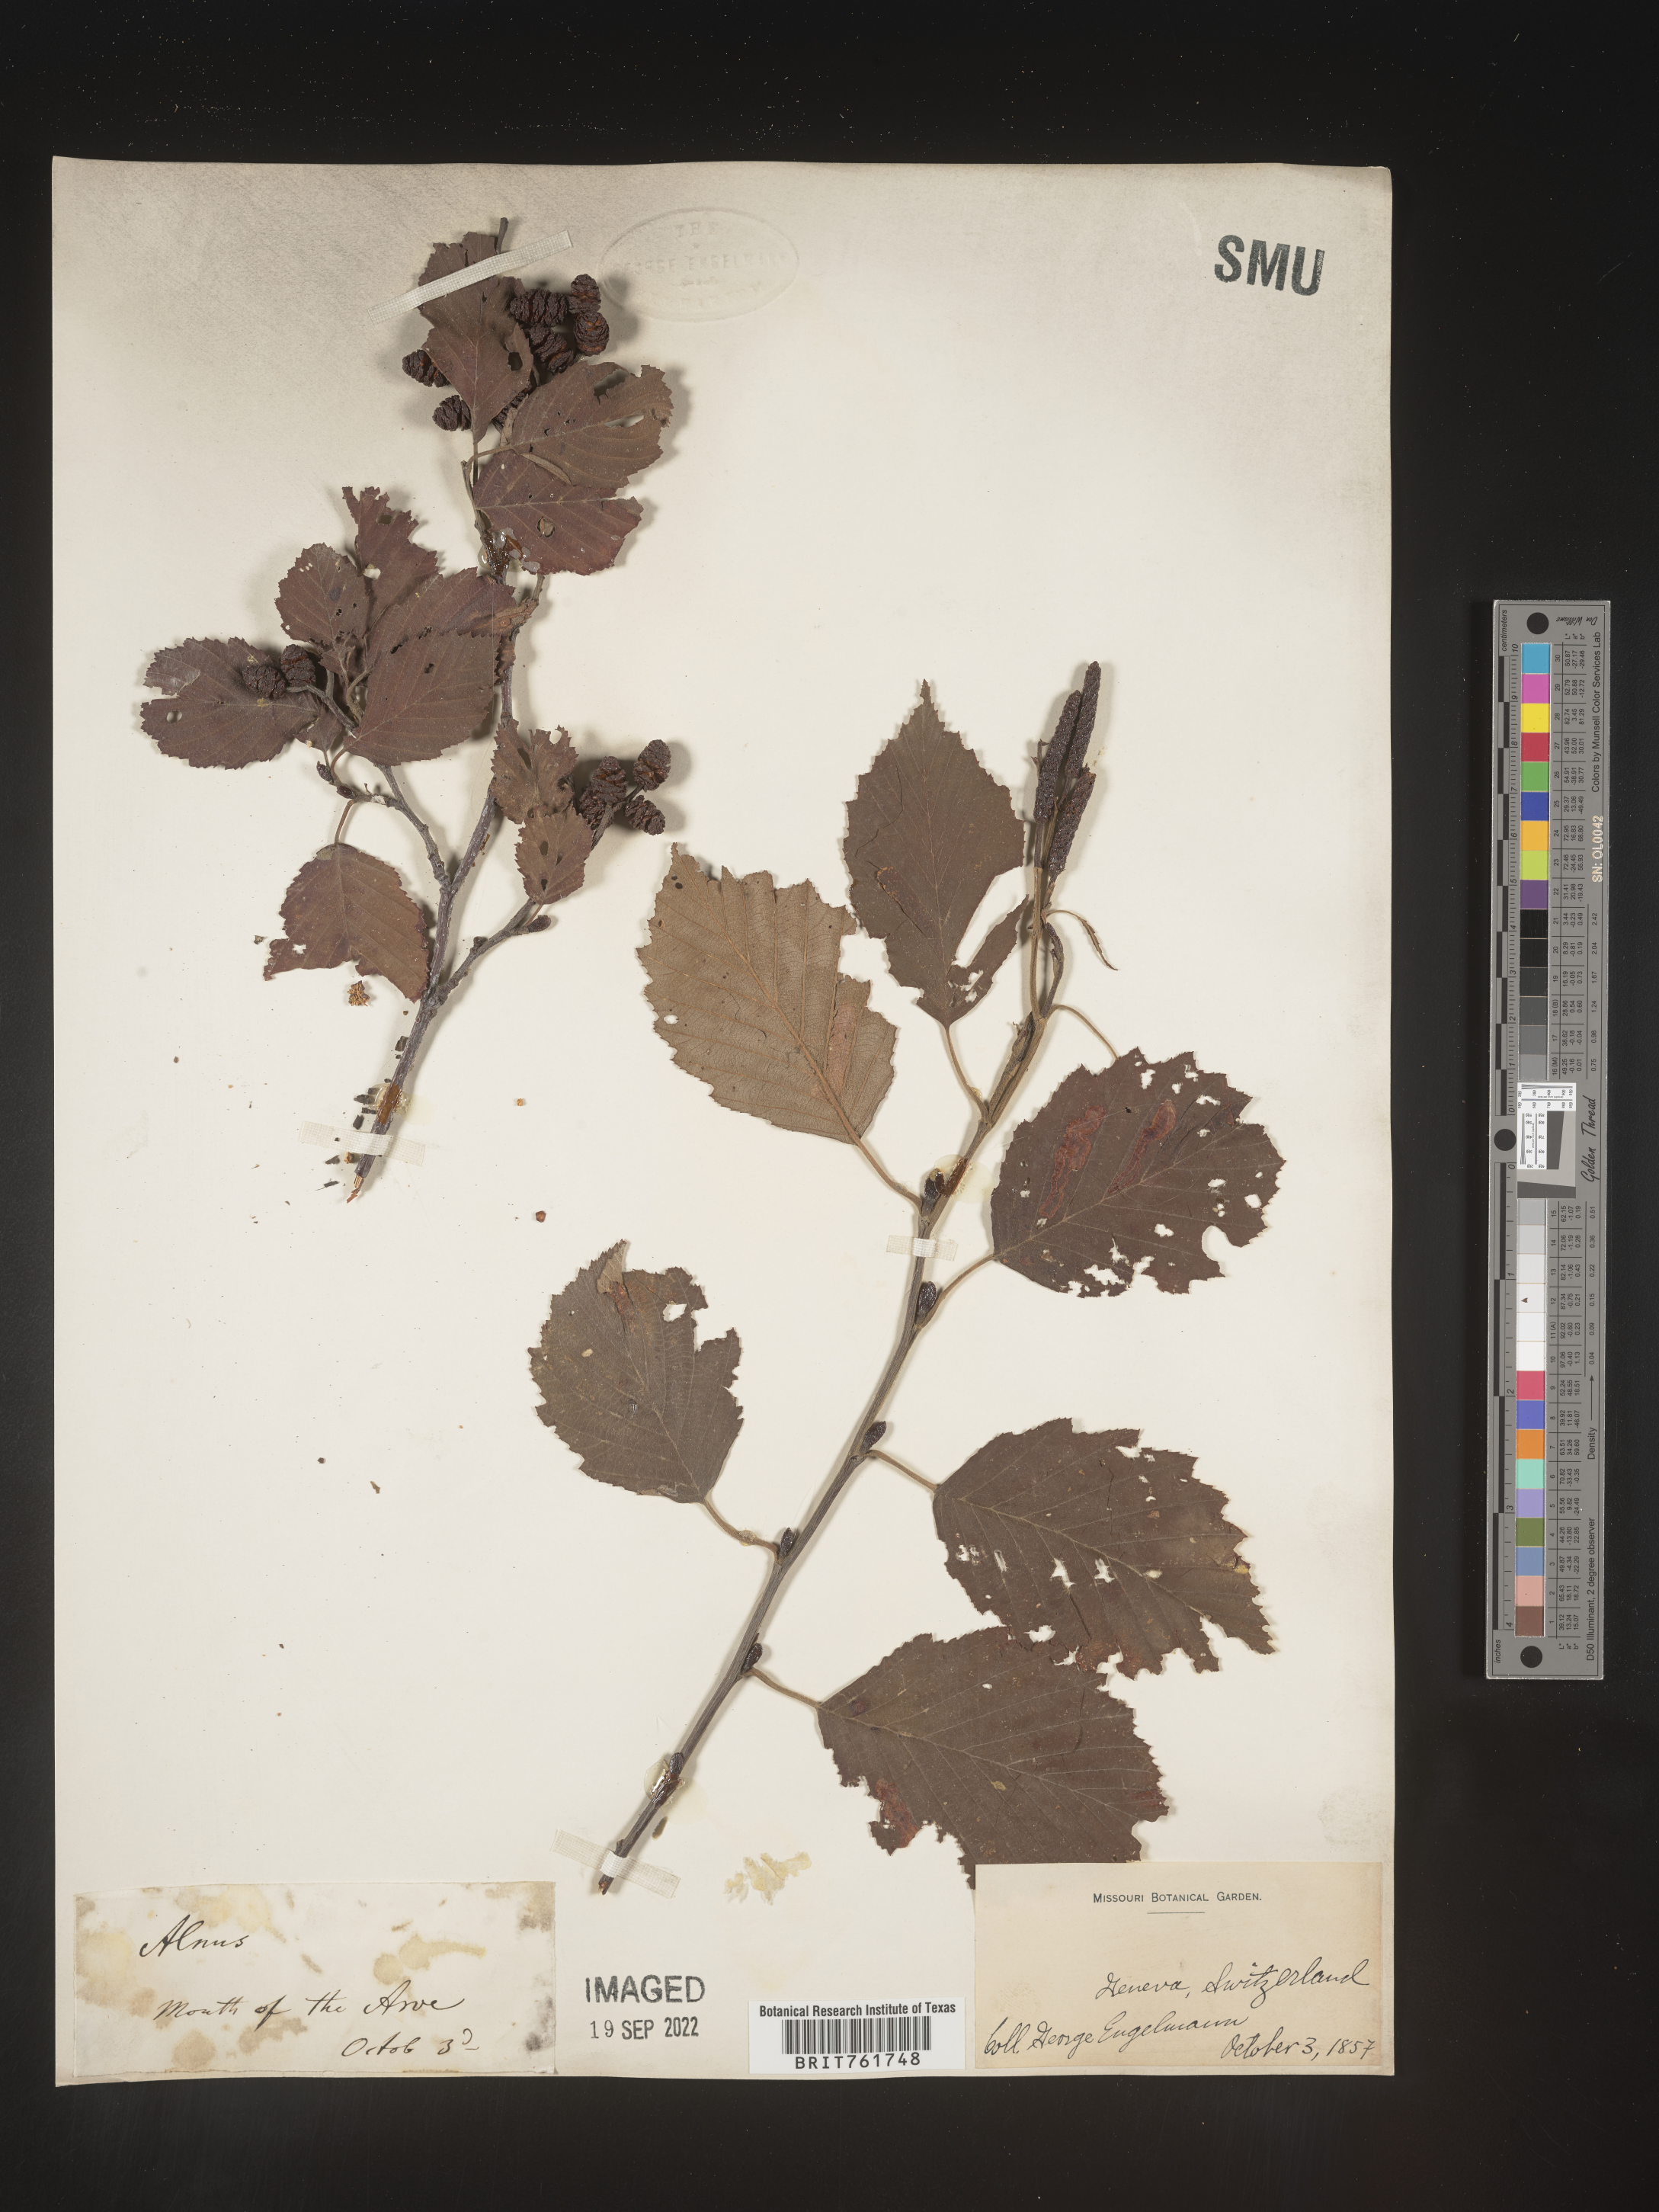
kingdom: Plantae
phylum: Tracheophyta
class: Magnoliopsida
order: Fagales
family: Betulaceae
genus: Alnus
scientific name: Alnus
